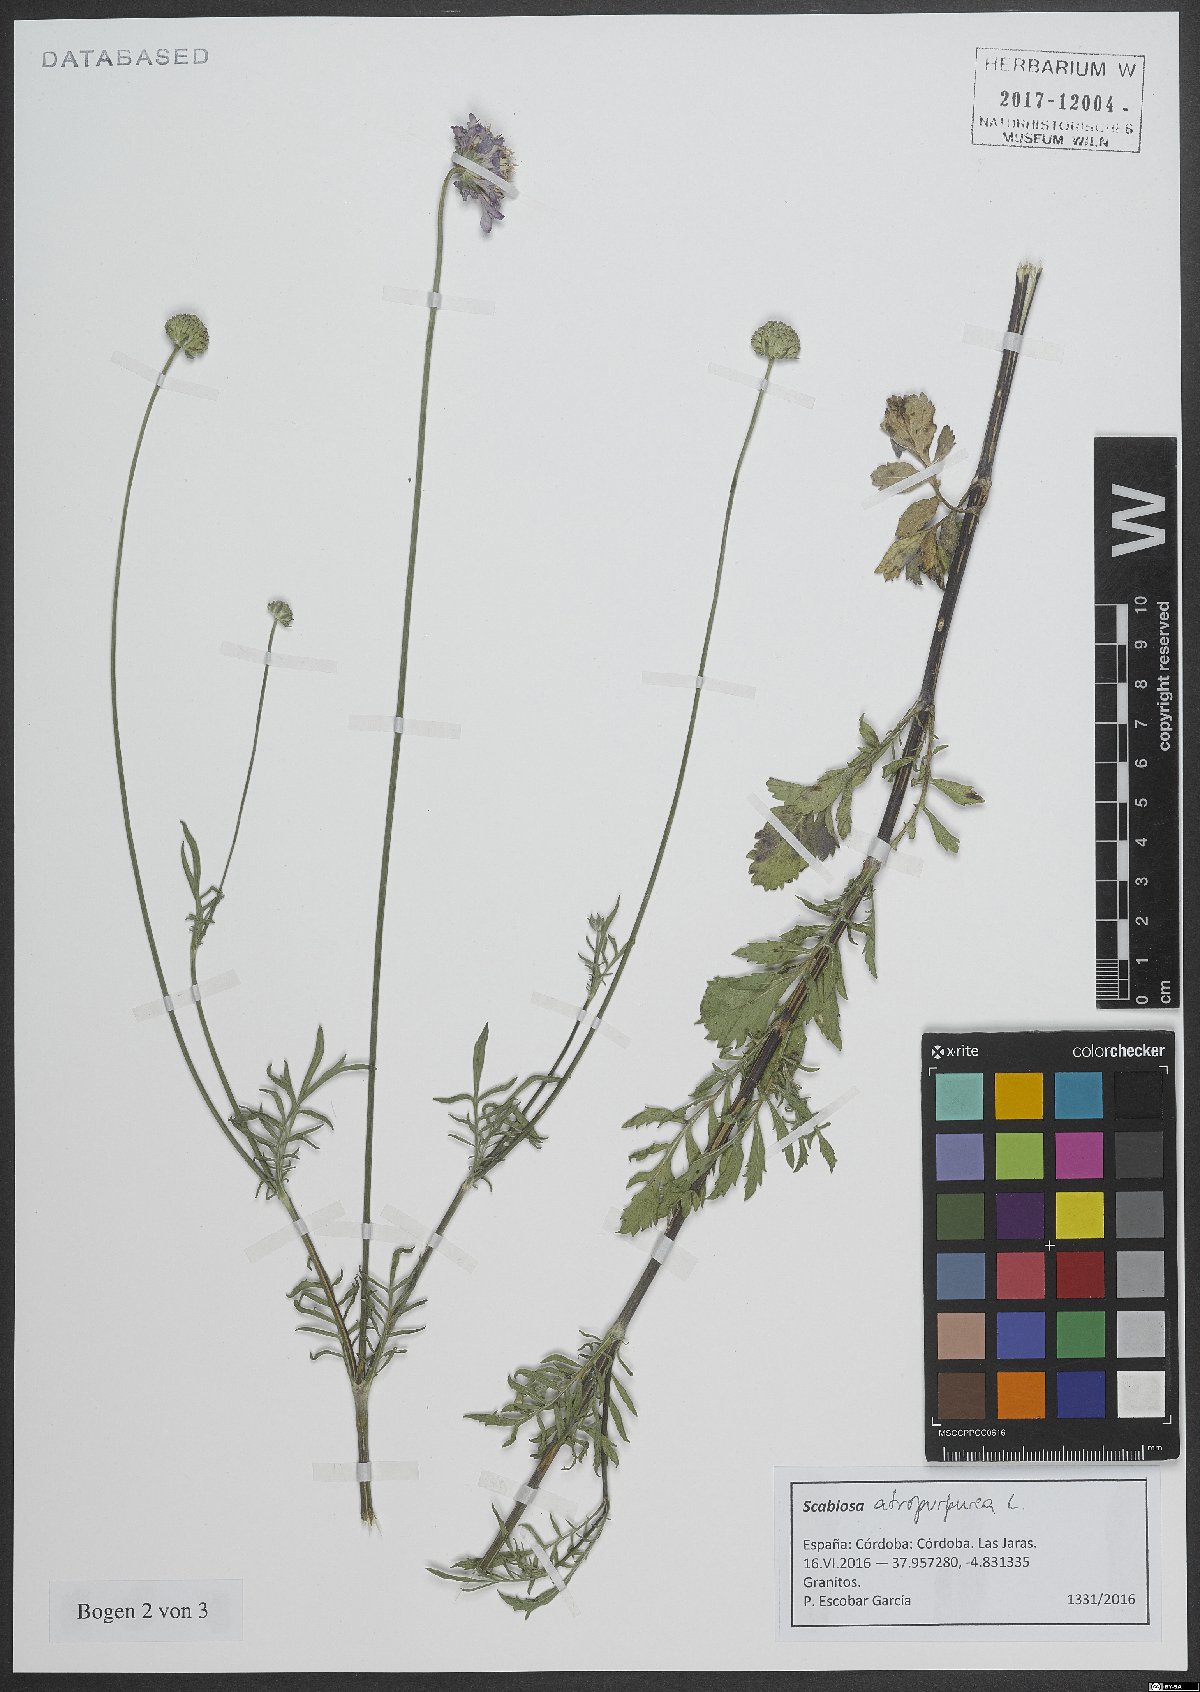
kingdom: Plantae
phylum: Tracheophyta
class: Magnoliopsida
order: Dipsacales
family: Caprifoliaceae
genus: Sixalix
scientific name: Sixalix atropurpurea
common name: Sweet scabious
